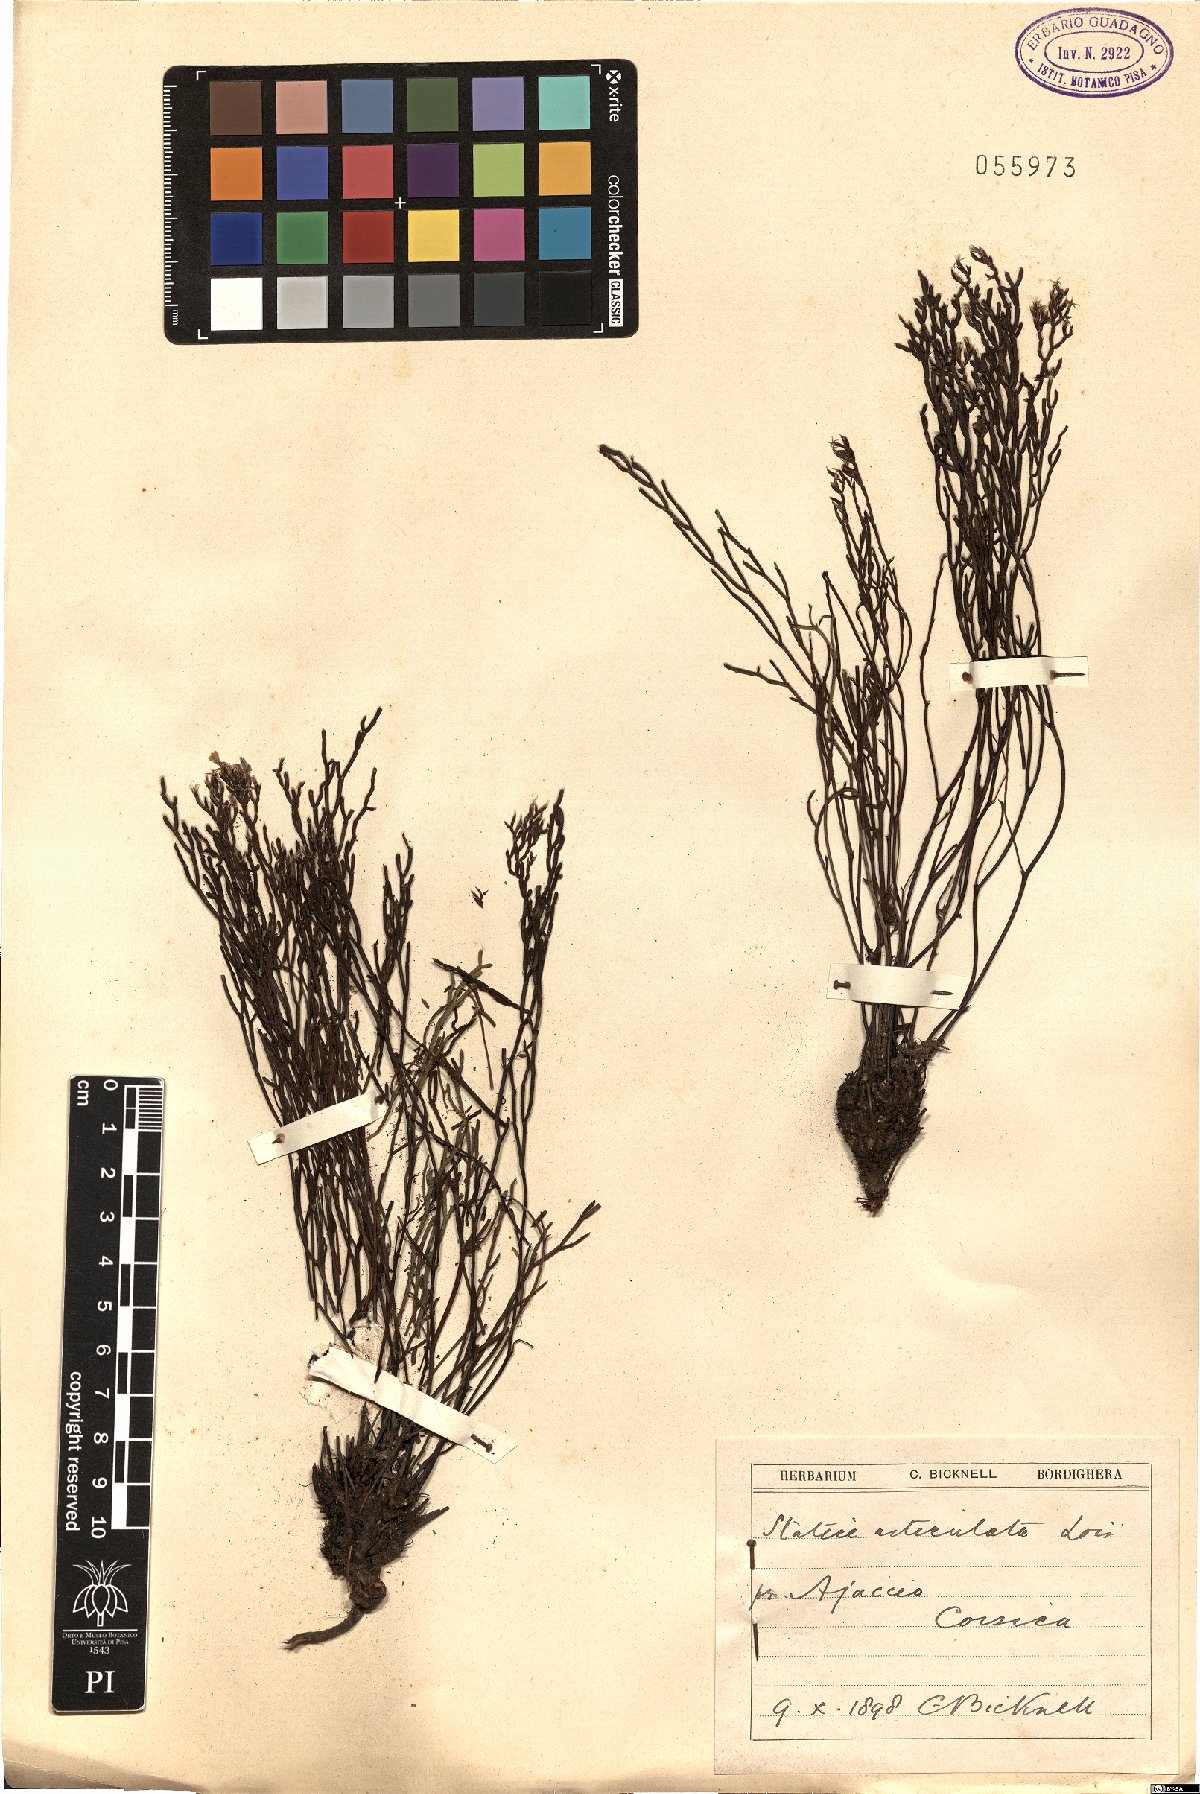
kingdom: Plantae
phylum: Tracheophyta
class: Magnoliopsida
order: Caryophyllales
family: Plumbaginaceae
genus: Limonium
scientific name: Limonium
